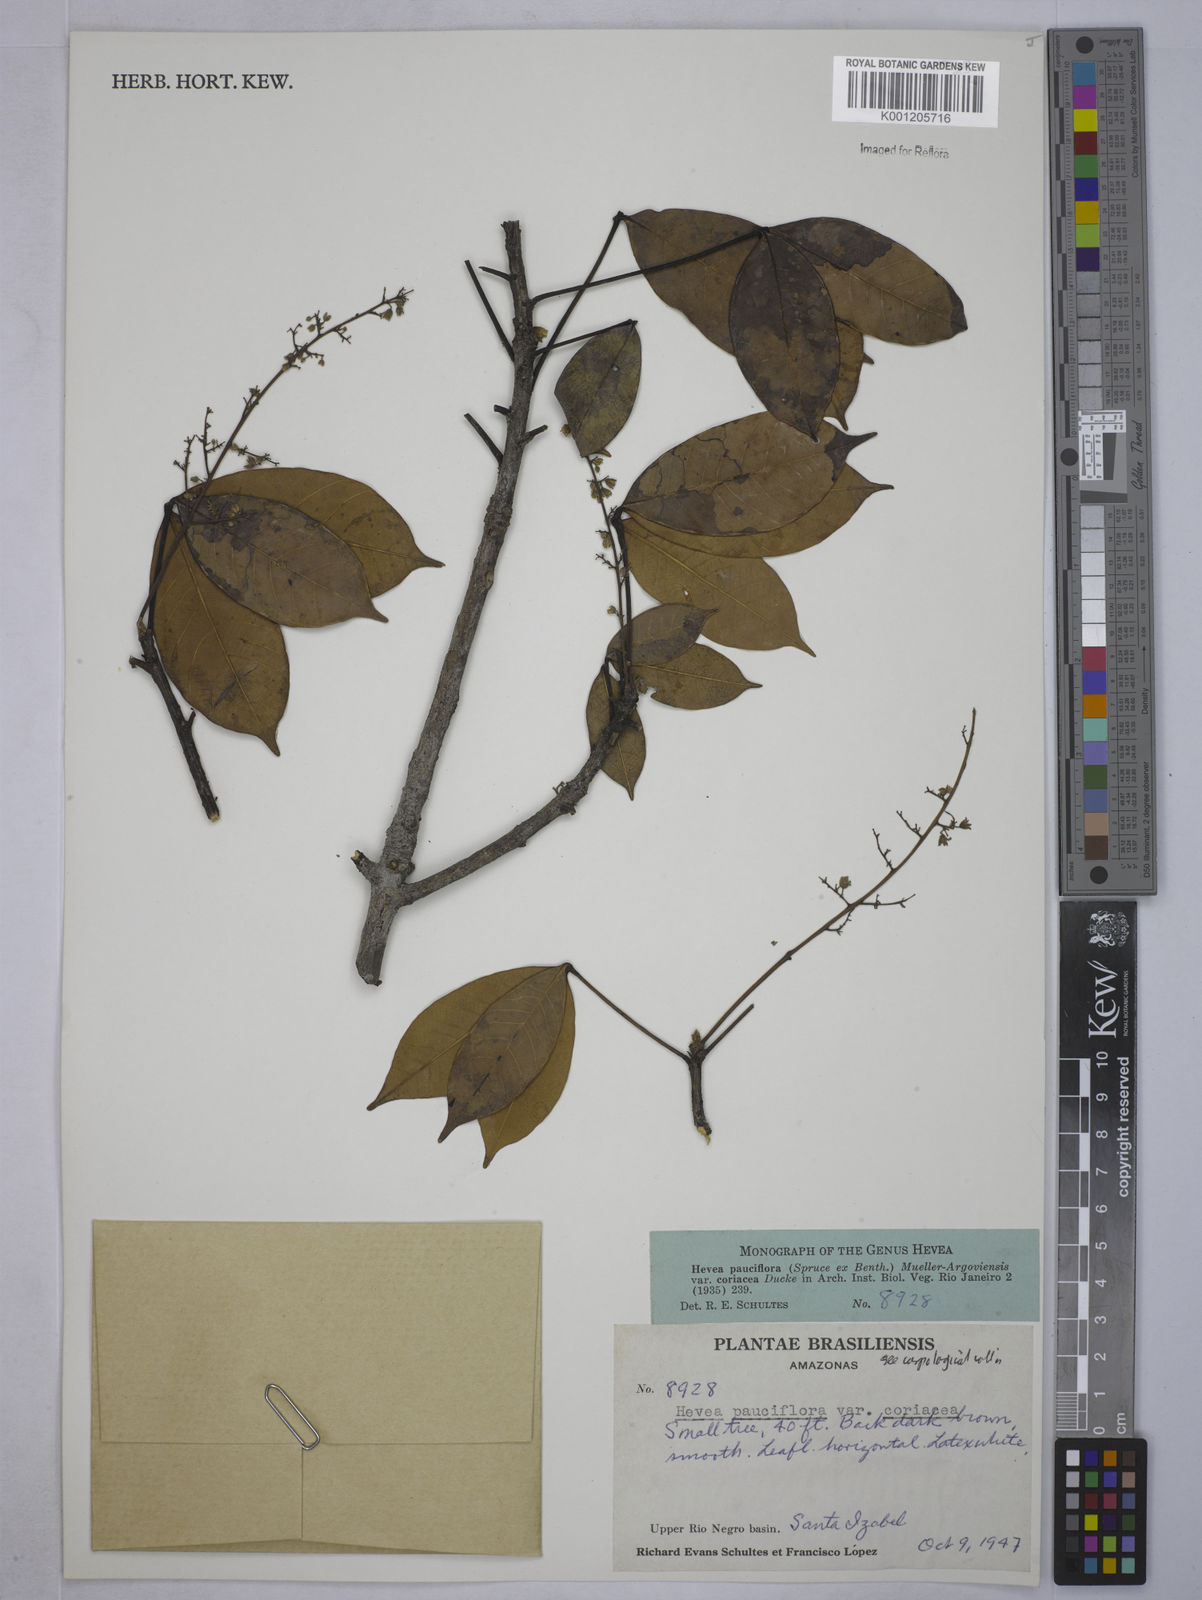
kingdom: Plantae
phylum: Tracheophyta
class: Magnoliopsida
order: Malpighiales
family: Euphorbiaceae
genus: Hevea
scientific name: Hevea pauciflora
